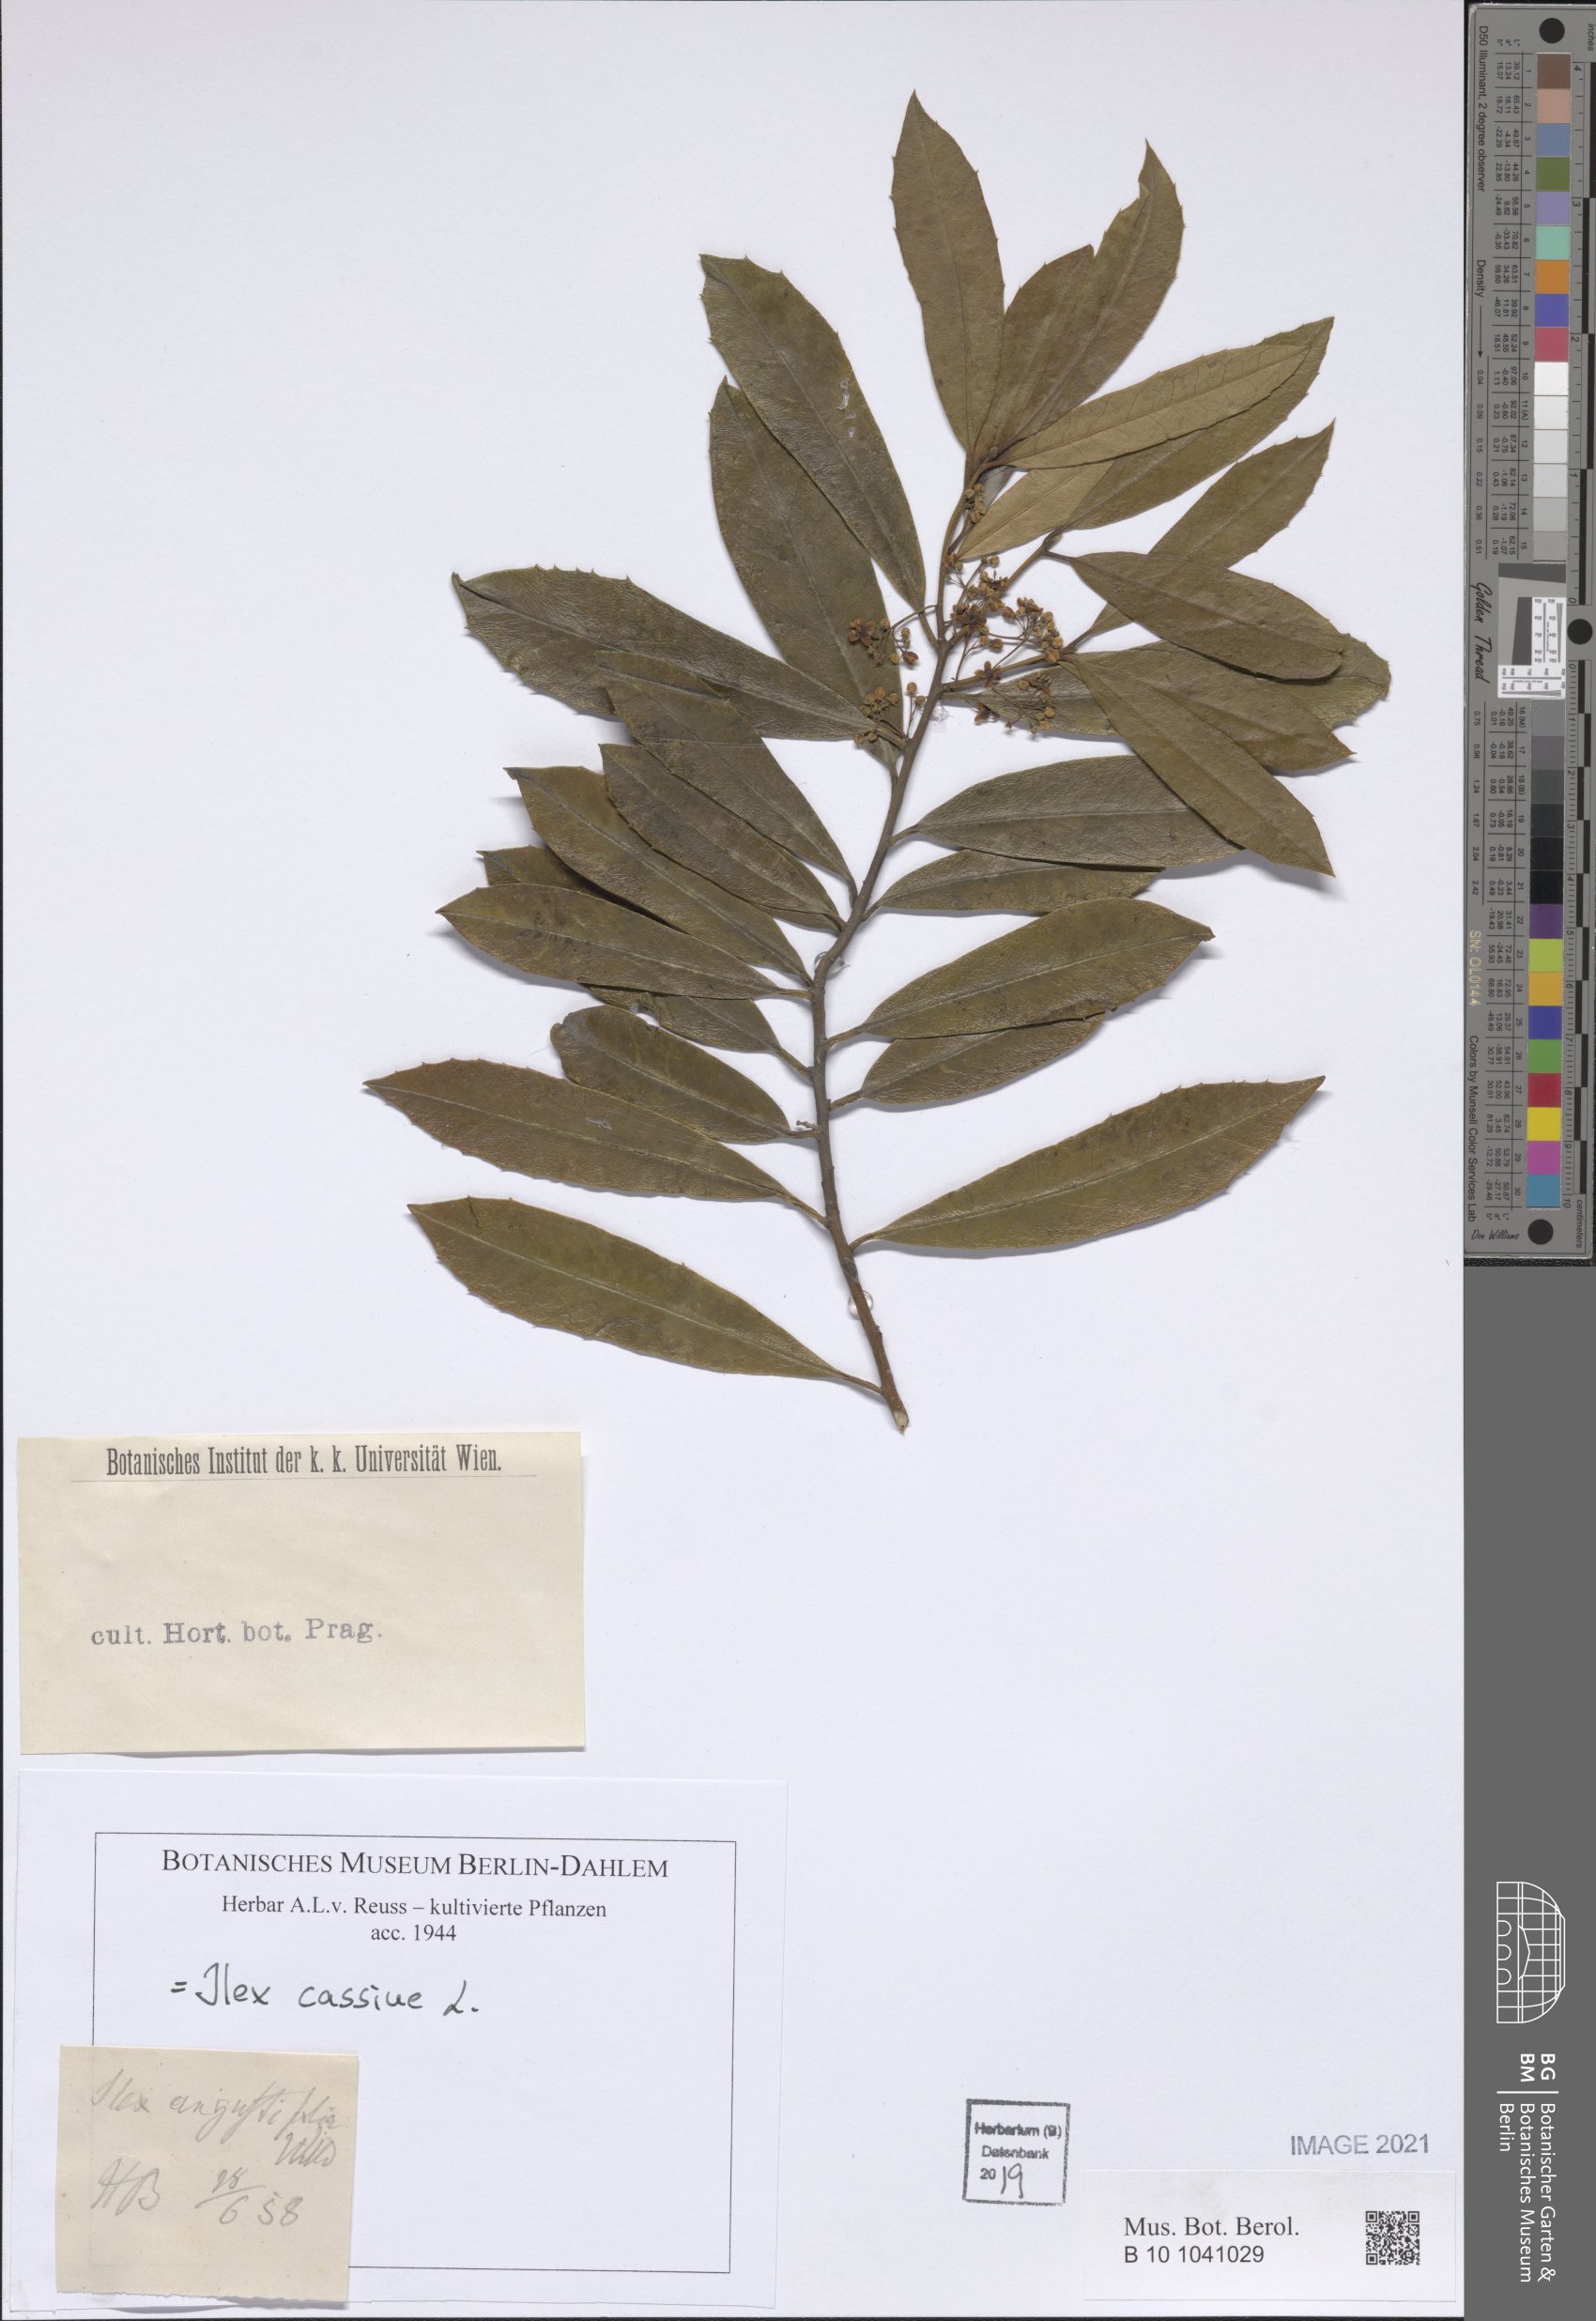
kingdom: Plantae
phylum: Tracheophyta
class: Magnoliopsida
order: Aquifoliales
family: Aquifoliaceae
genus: Ilex
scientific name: Ilex cassine
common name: Dahoon
